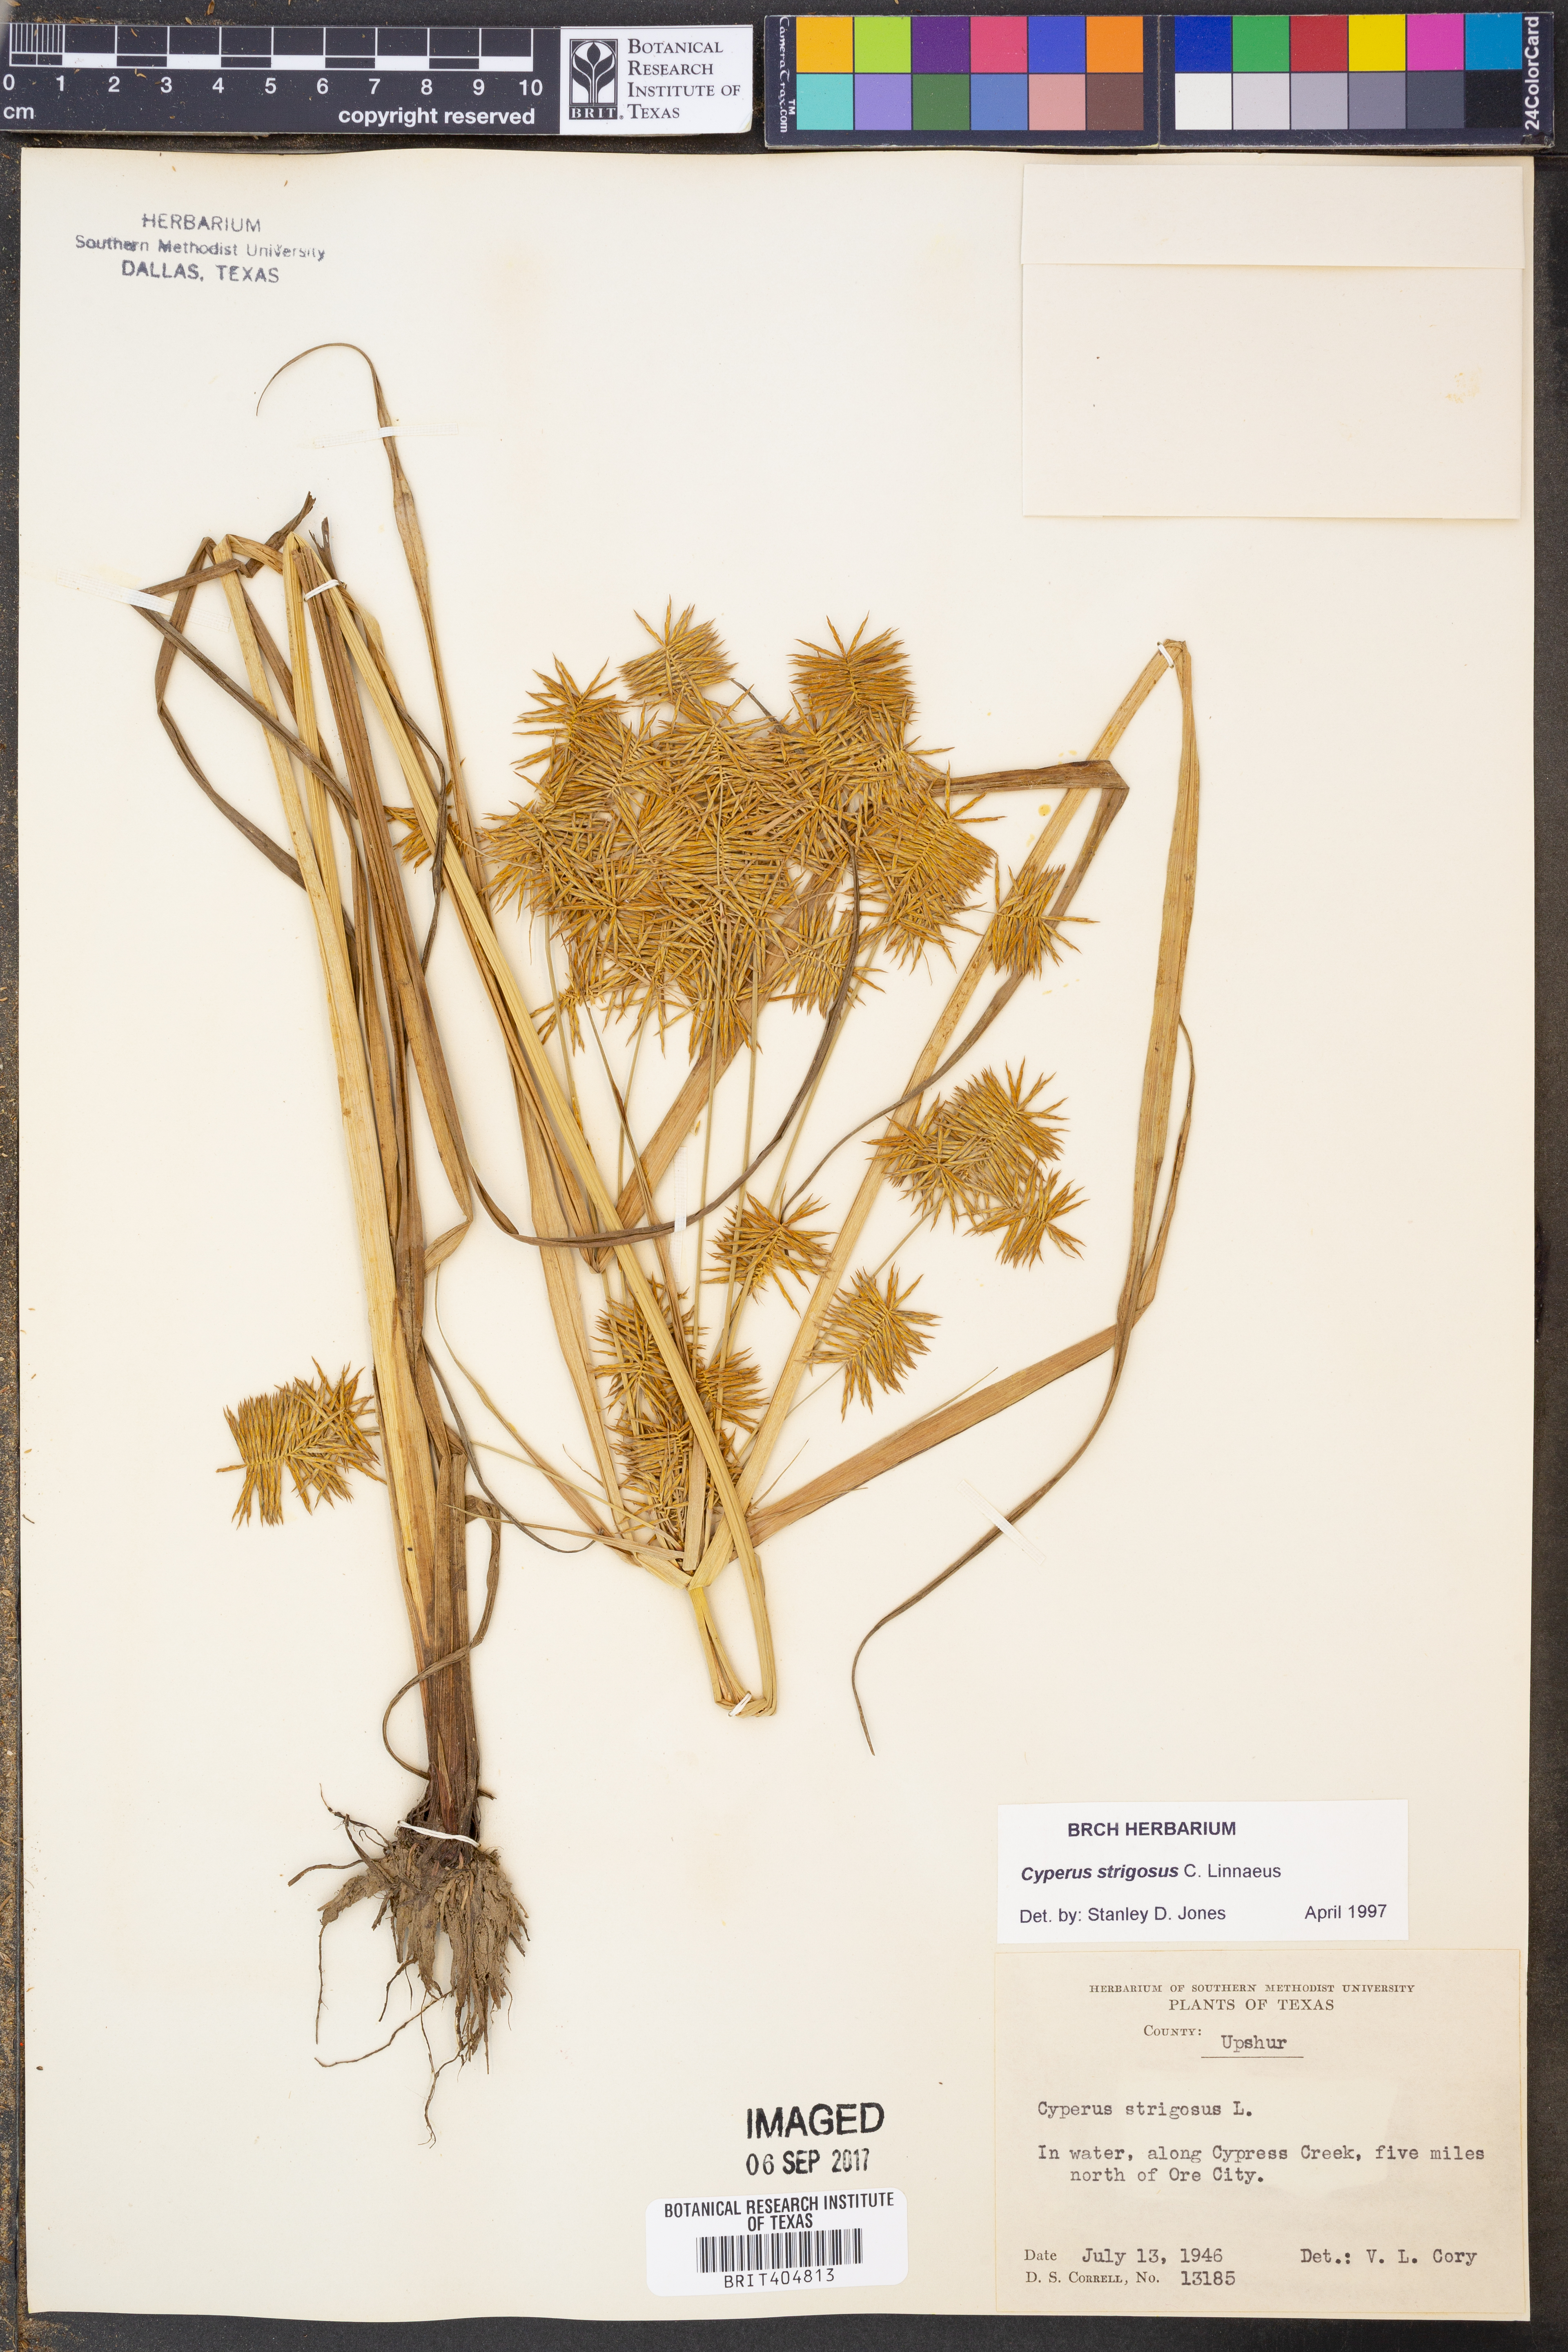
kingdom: Plantae
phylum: Tracheophyta
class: Liliopsida
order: Poales
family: Cyperaceae
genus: Cyperus
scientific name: Cyperus strigosus
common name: False nutsedge
